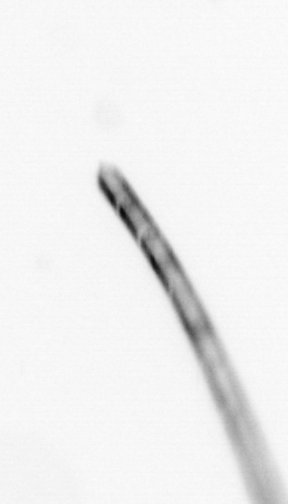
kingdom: Chromista
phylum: Ochrophyta
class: Bacillariophyceae
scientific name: Bacillariophyceae
